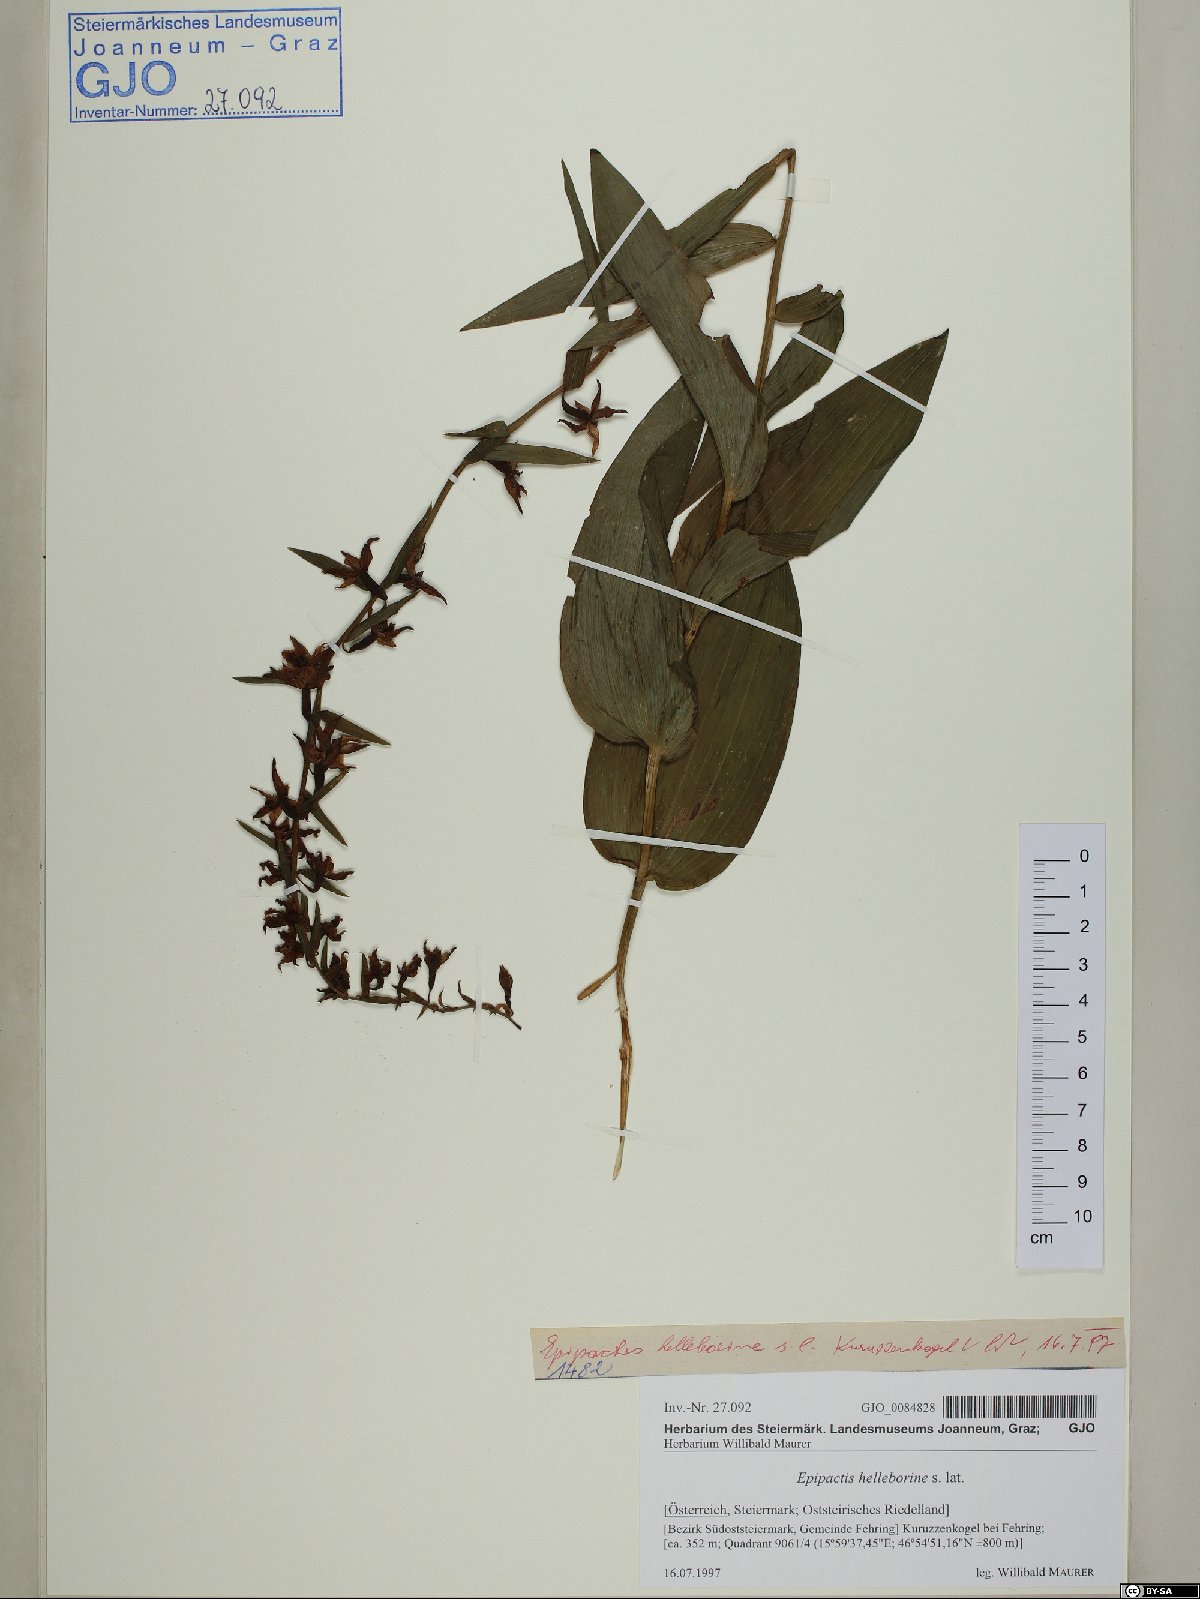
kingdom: Plantae
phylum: Tracheophyta
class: Liliopsida
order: Asparagales
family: Orchidaceae
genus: Epipactis
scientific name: Epipactis helleborine
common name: Broad-leaved helleborine
